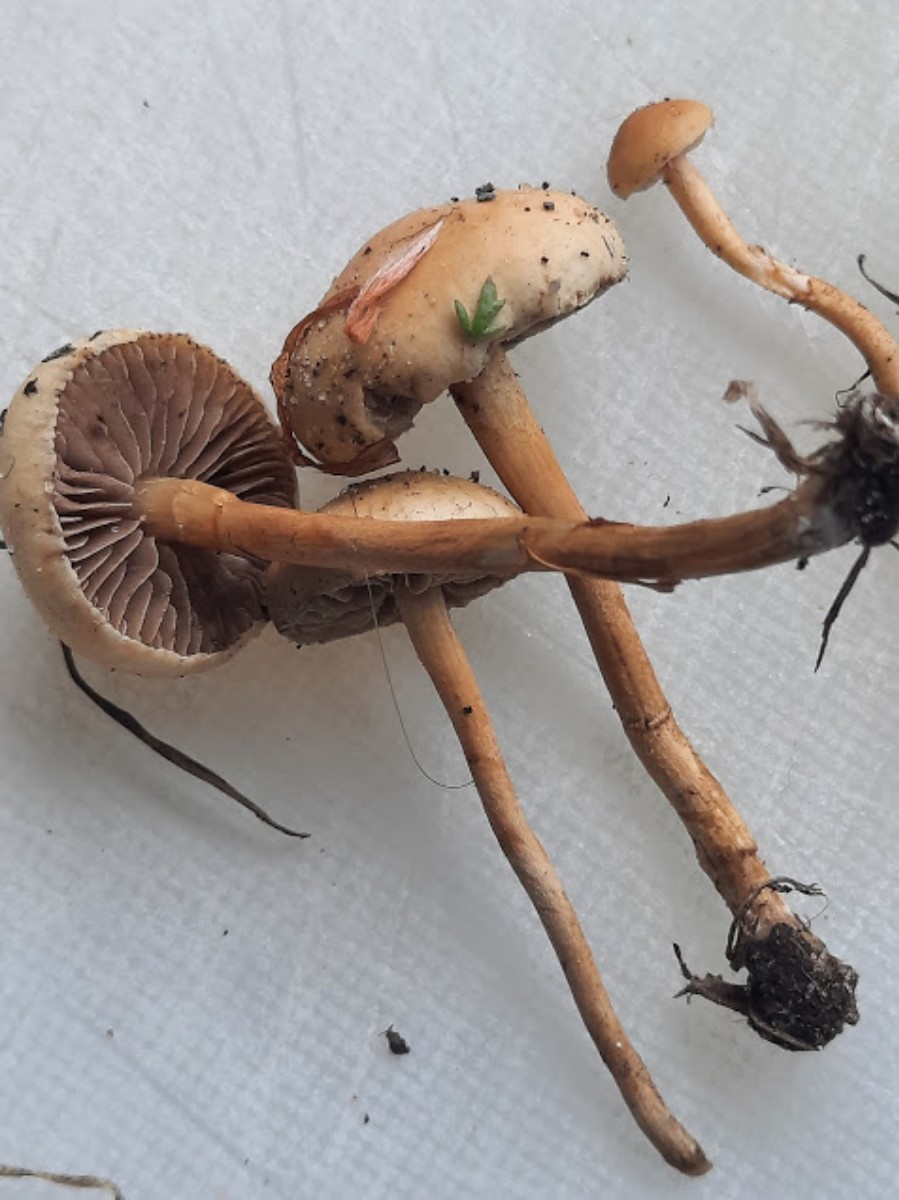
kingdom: Fungi
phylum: Basidiomycota
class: Agaricomycetes
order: Agaricales
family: Strophariaceae
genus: Agrocybe
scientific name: Agrocybe pediades
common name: almindelig agerhat
